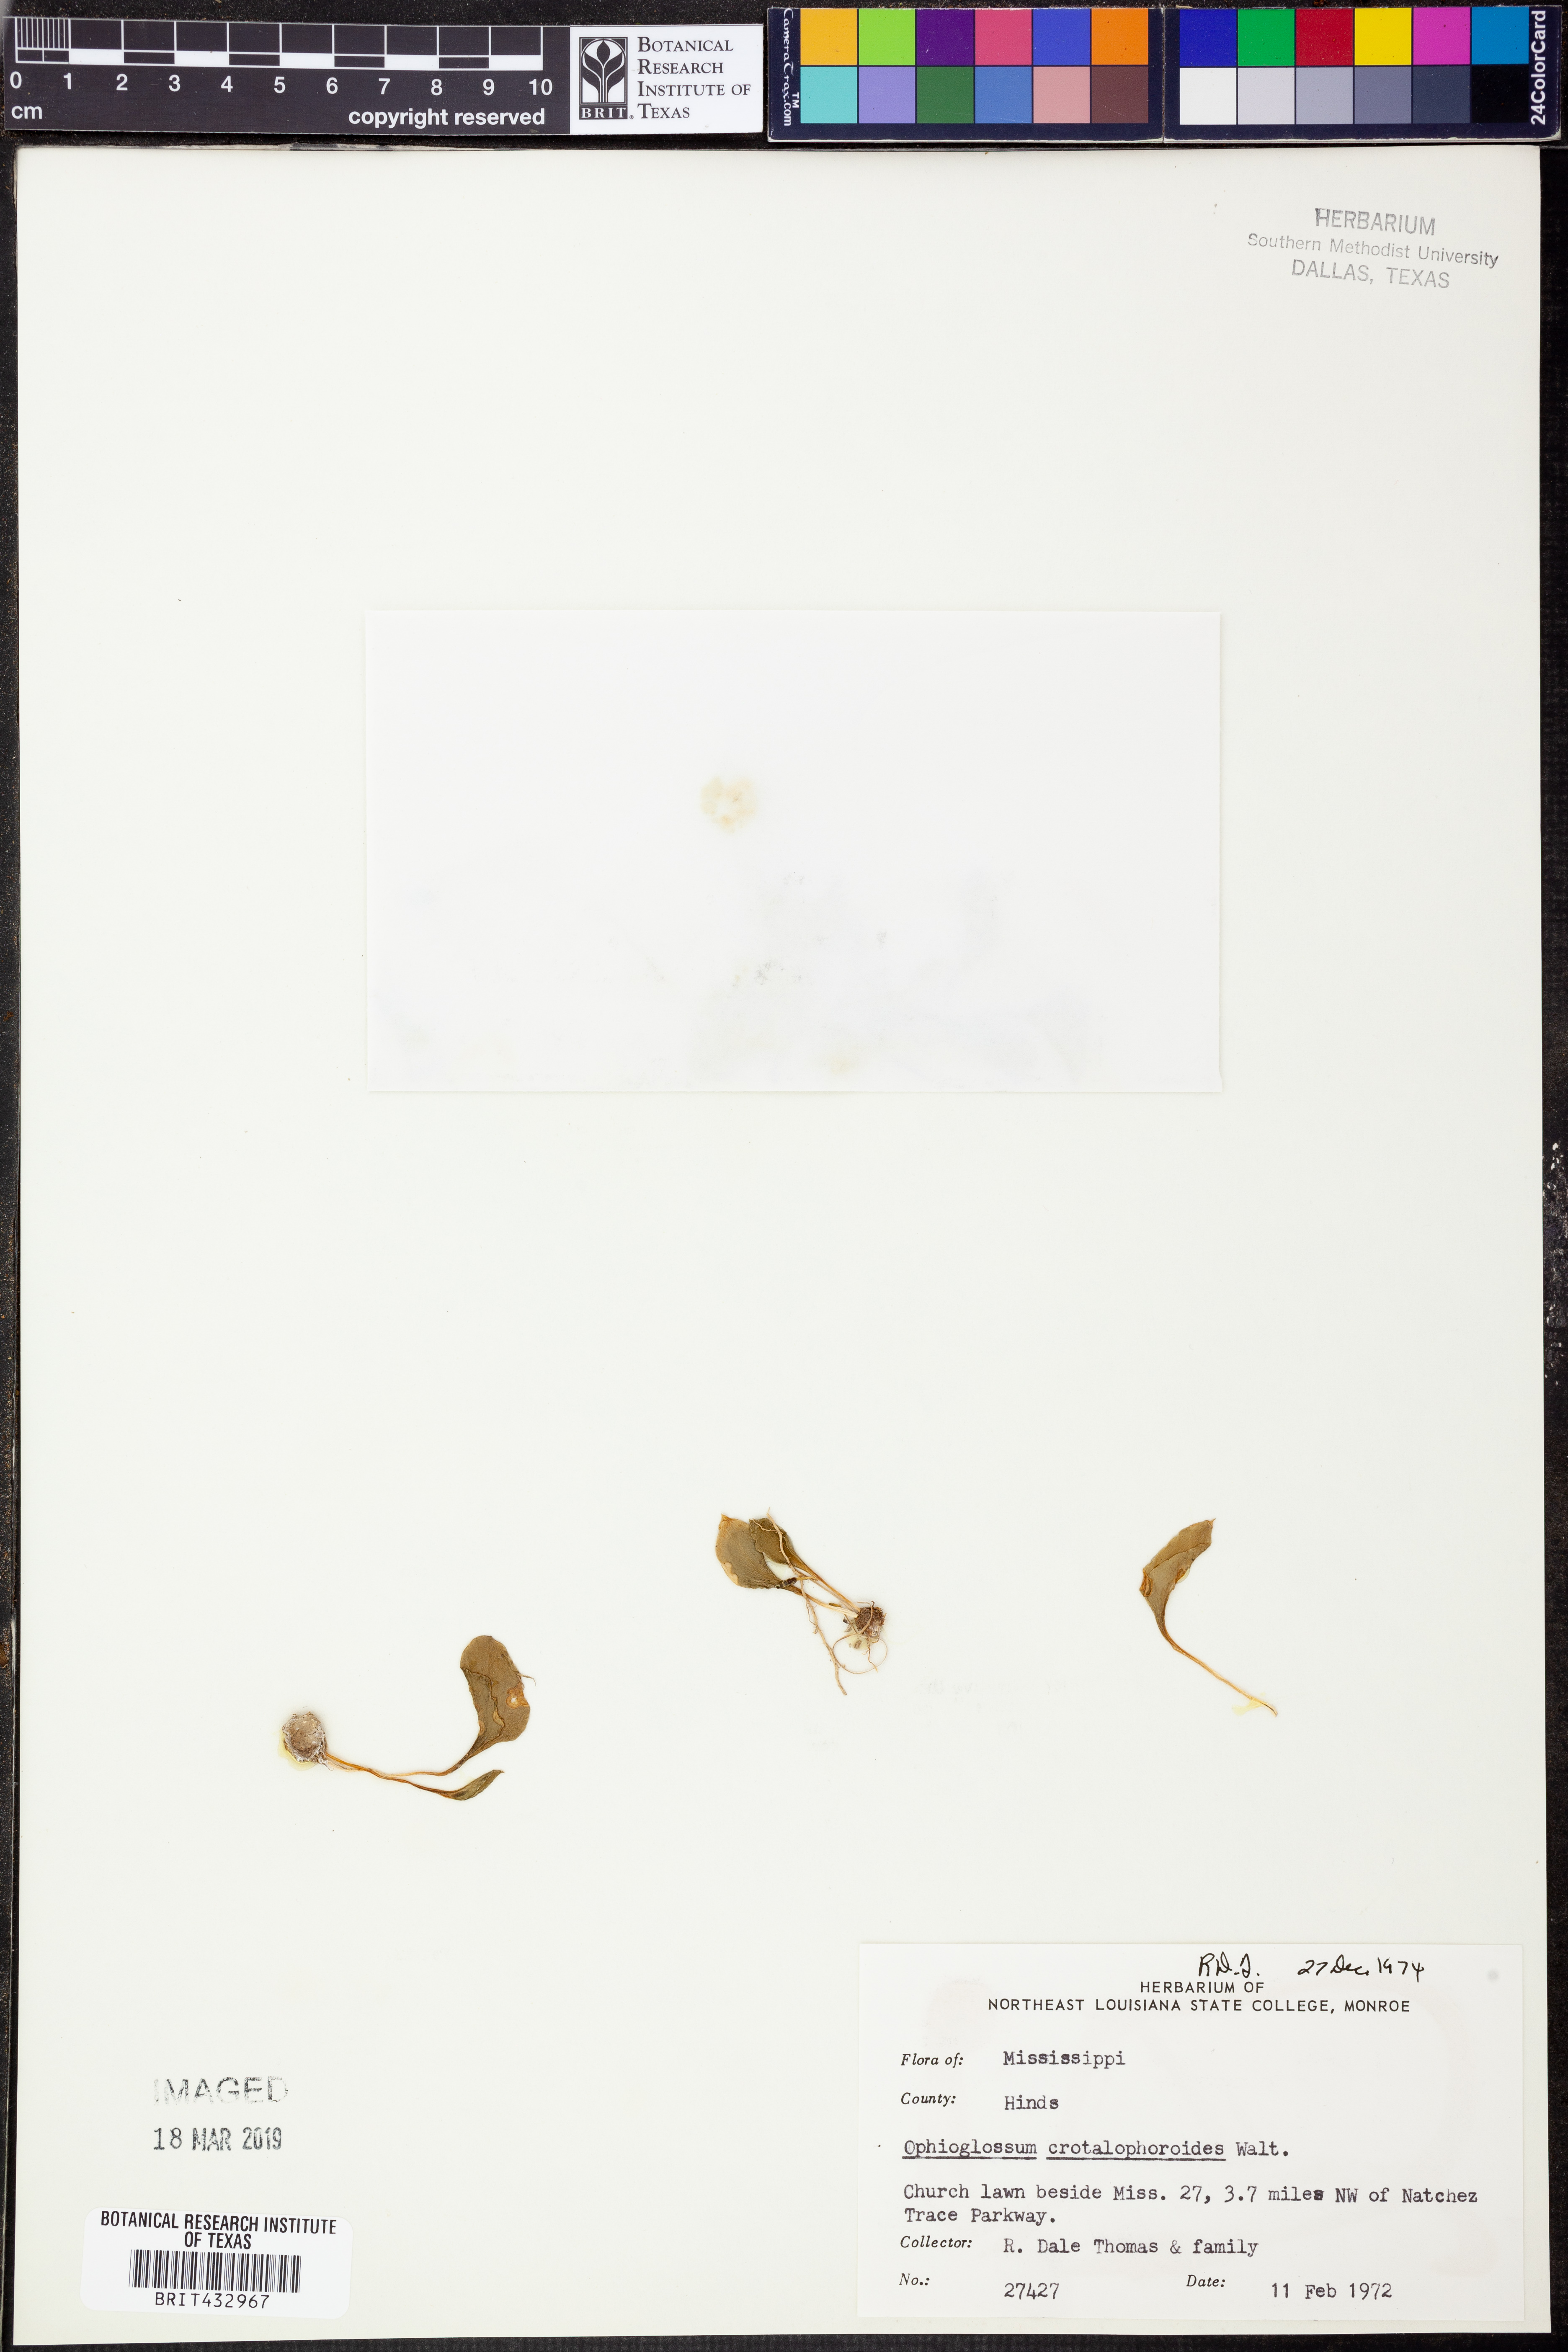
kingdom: Plantae
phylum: Tracheophyta
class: Polypodiopsida
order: Ophioglossales
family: Ophioglossaceae
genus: Ophioglossum
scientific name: Ophioglossum crotalophoroides
